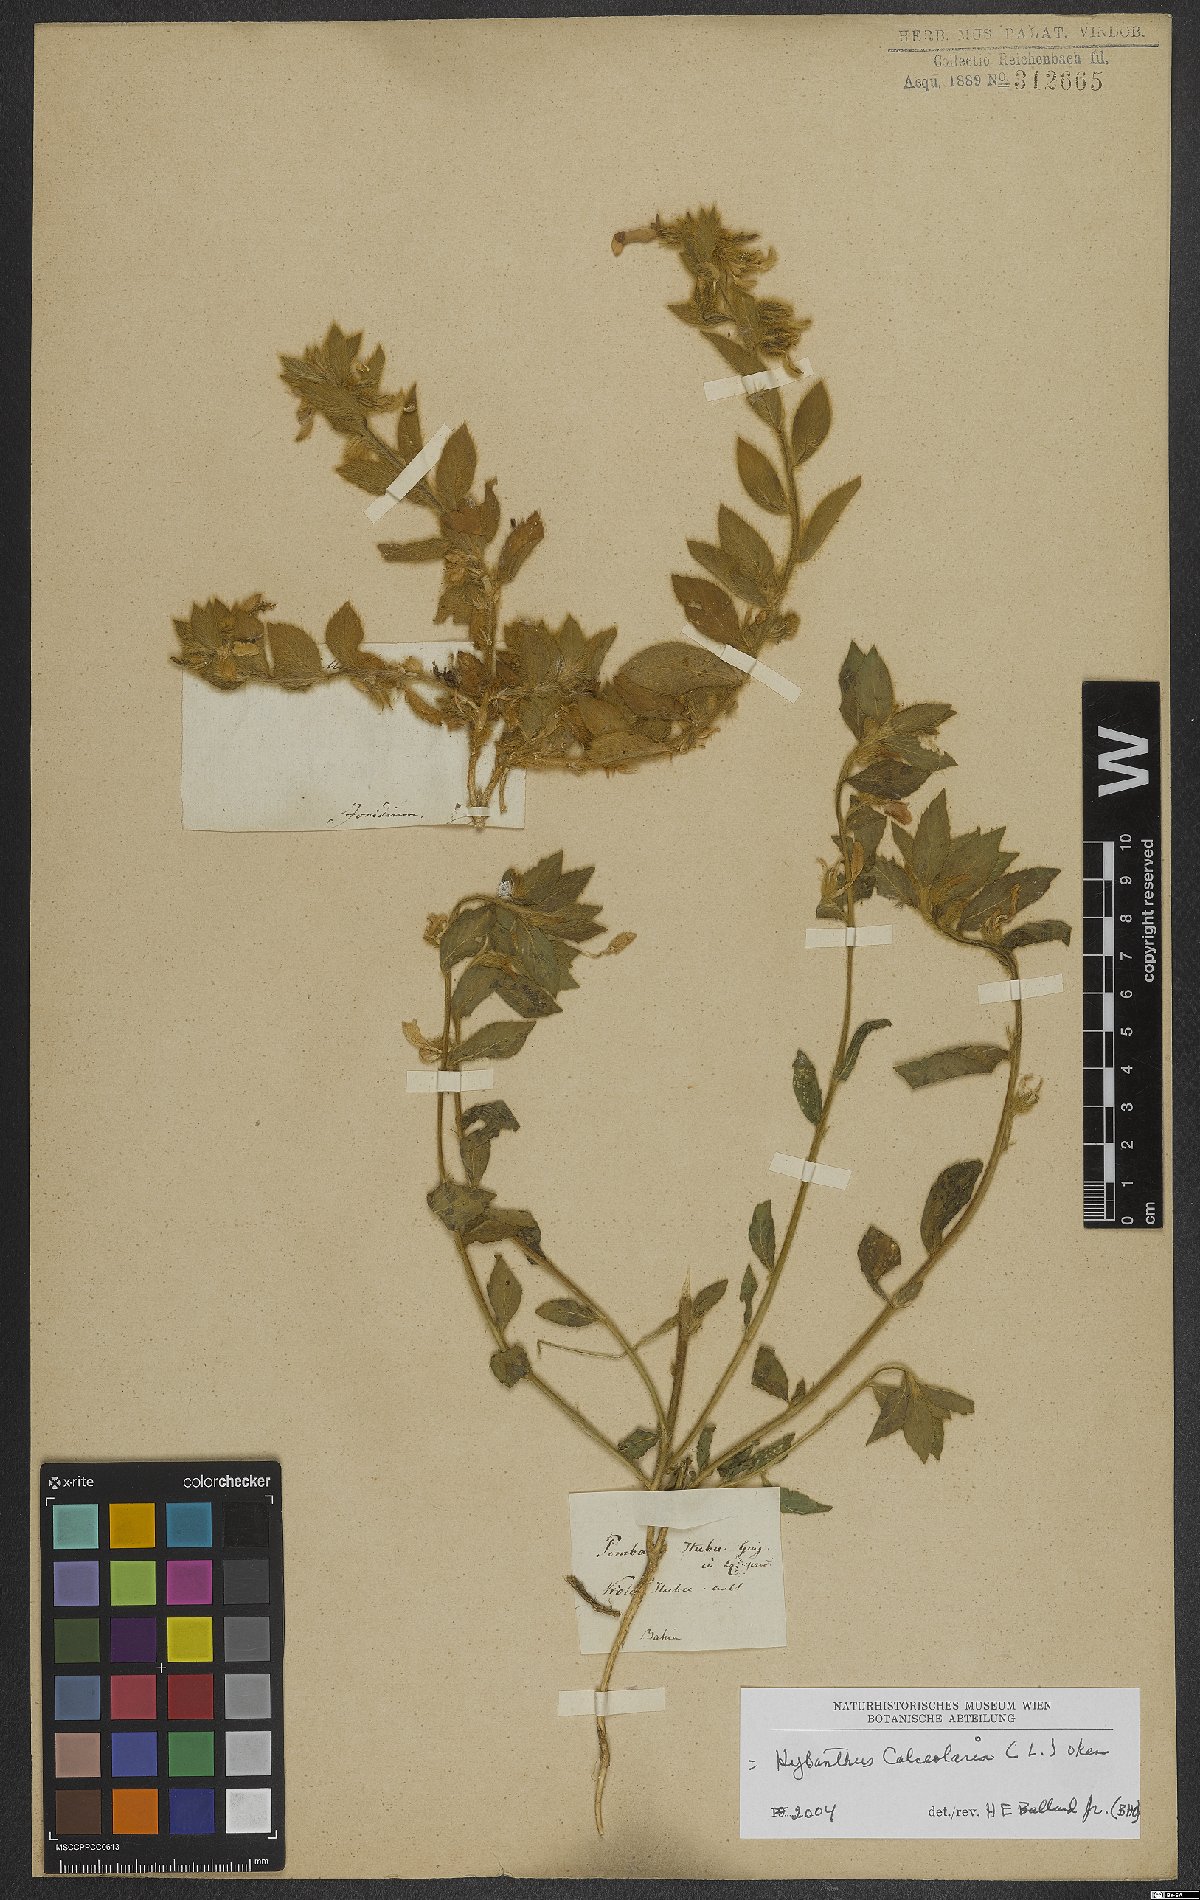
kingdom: Plantae
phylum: Tracheophyta
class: Magnoliopsida
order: Malpighiales
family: Violaceae
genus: Pombalia
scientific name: Pombalia calceolaria
